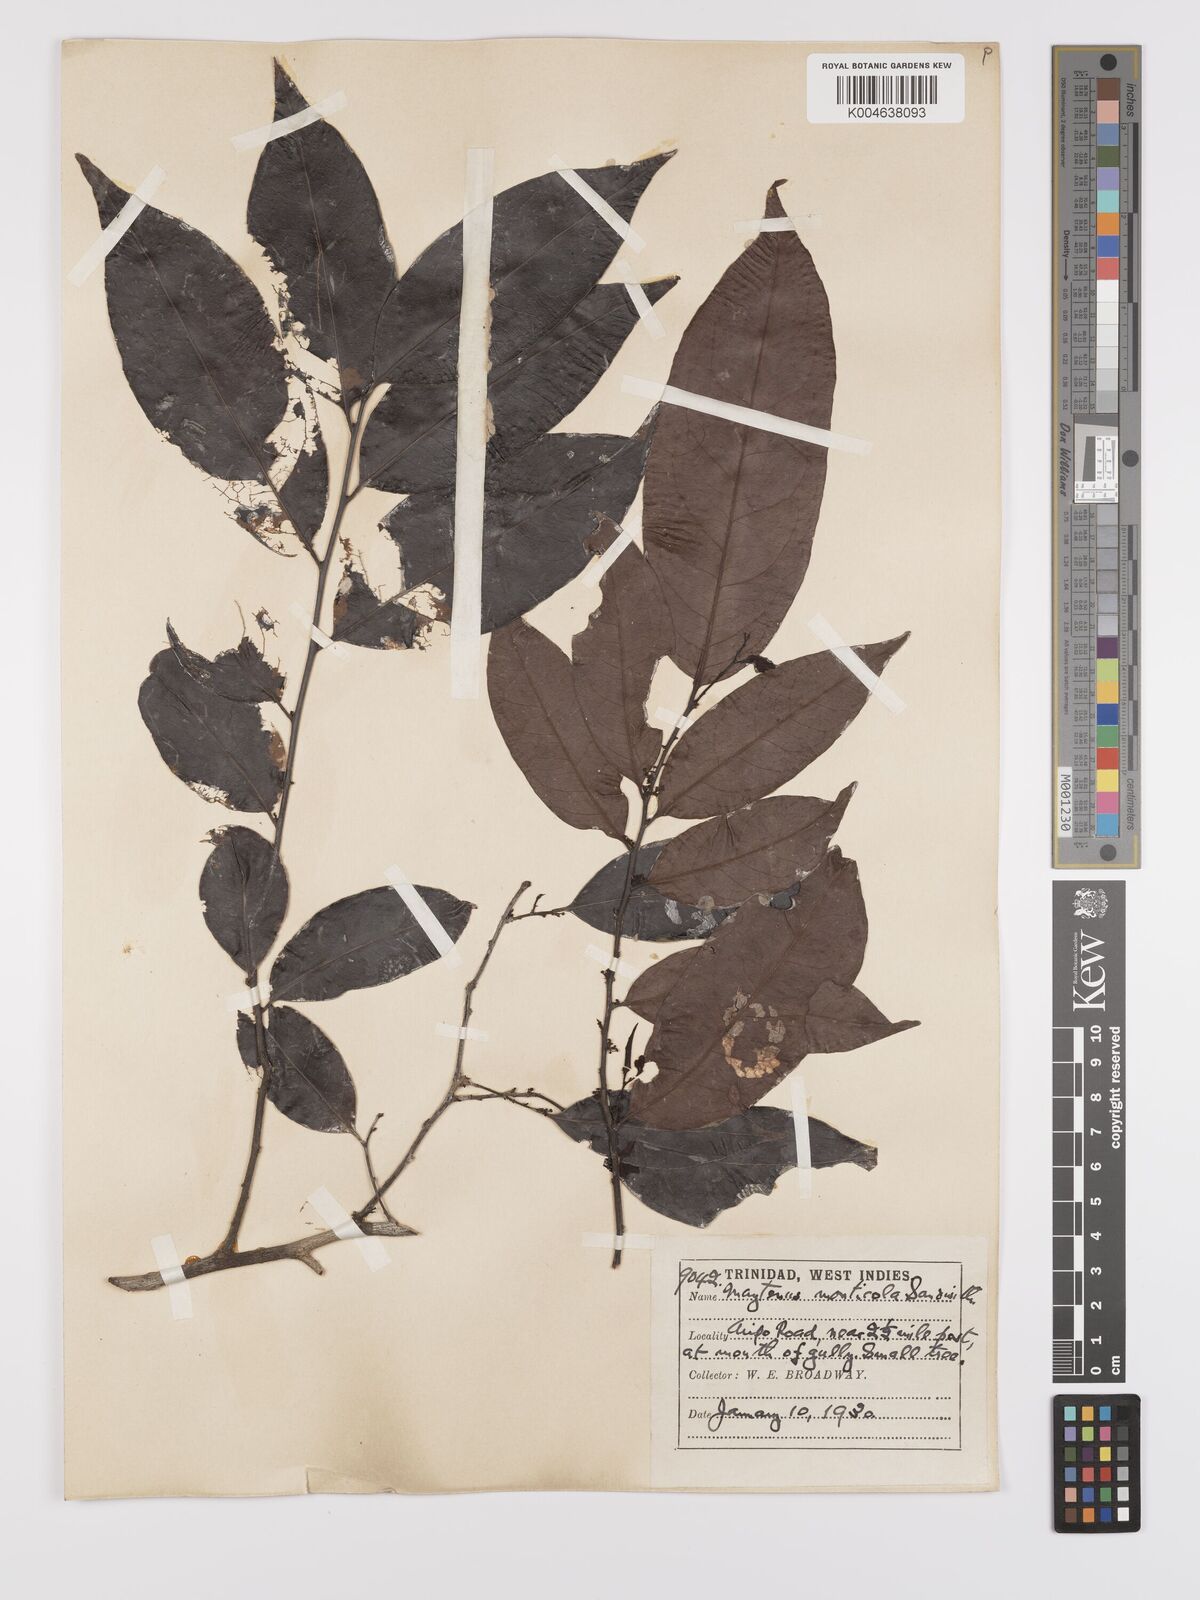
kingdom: Plantae
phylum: Tracheophyta
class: Magnoliopsida
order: Celastrales
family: Celastraceae
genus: Monteverdia
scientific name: Monteverdia monticola
